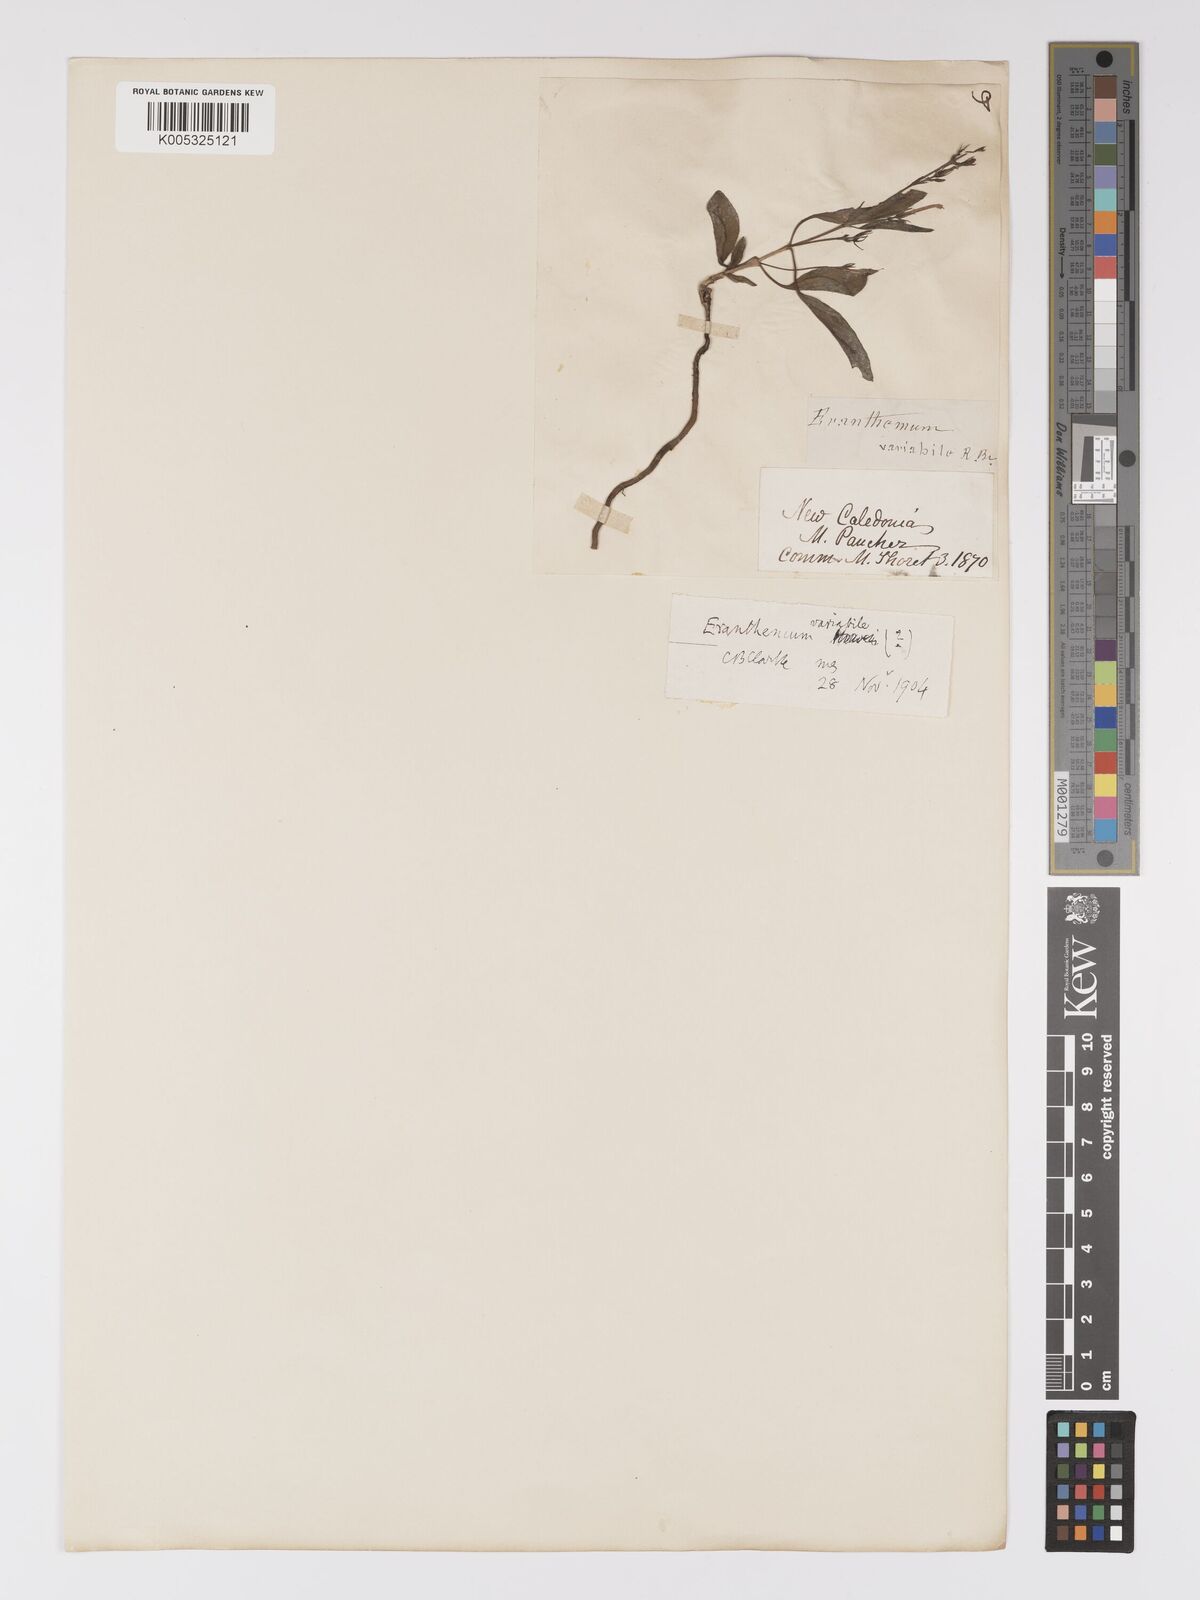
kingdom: Plantae
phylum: Tracheophyta
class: Magnoliopsida
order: Lamiales
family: Acanthaceae
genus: Pseuderanthemum
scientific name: Pseuderanthemum variabile
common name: Night and afternoon
